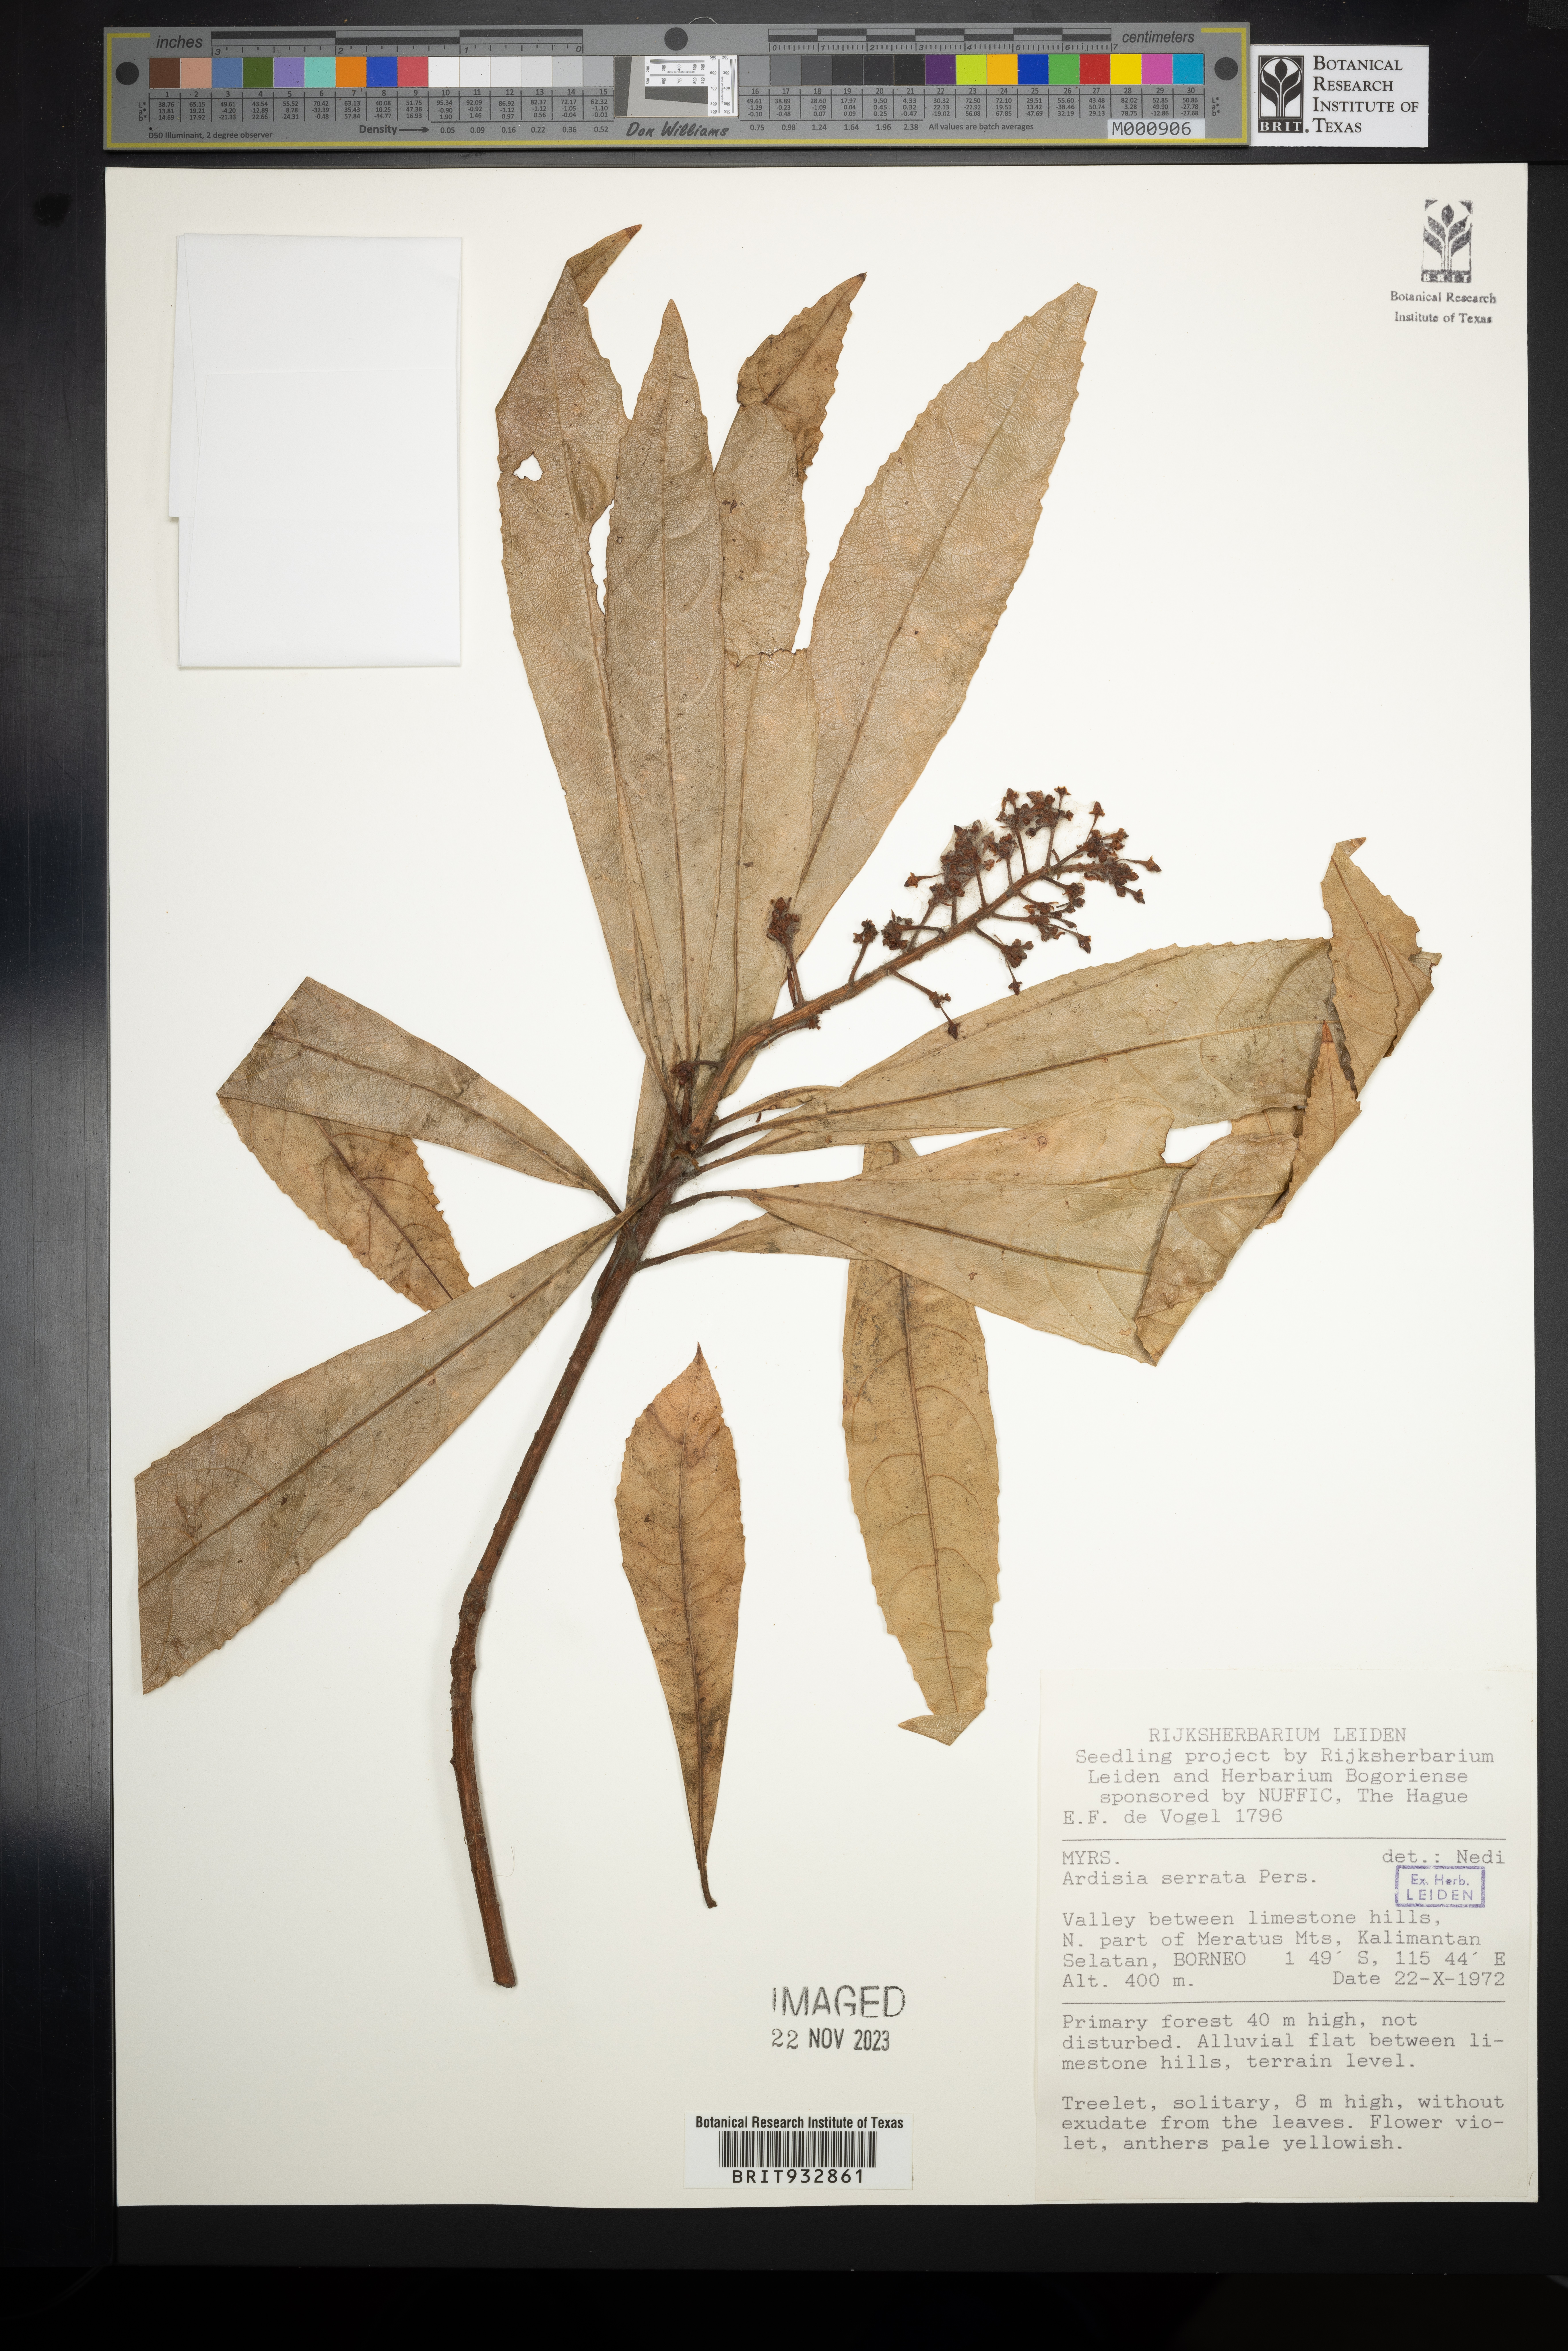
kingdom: Plantae
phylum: Tracheophyta
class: Magnoliopsida
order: Ericales
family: Primulaceae
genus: Ardisia
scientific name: Ardisia
